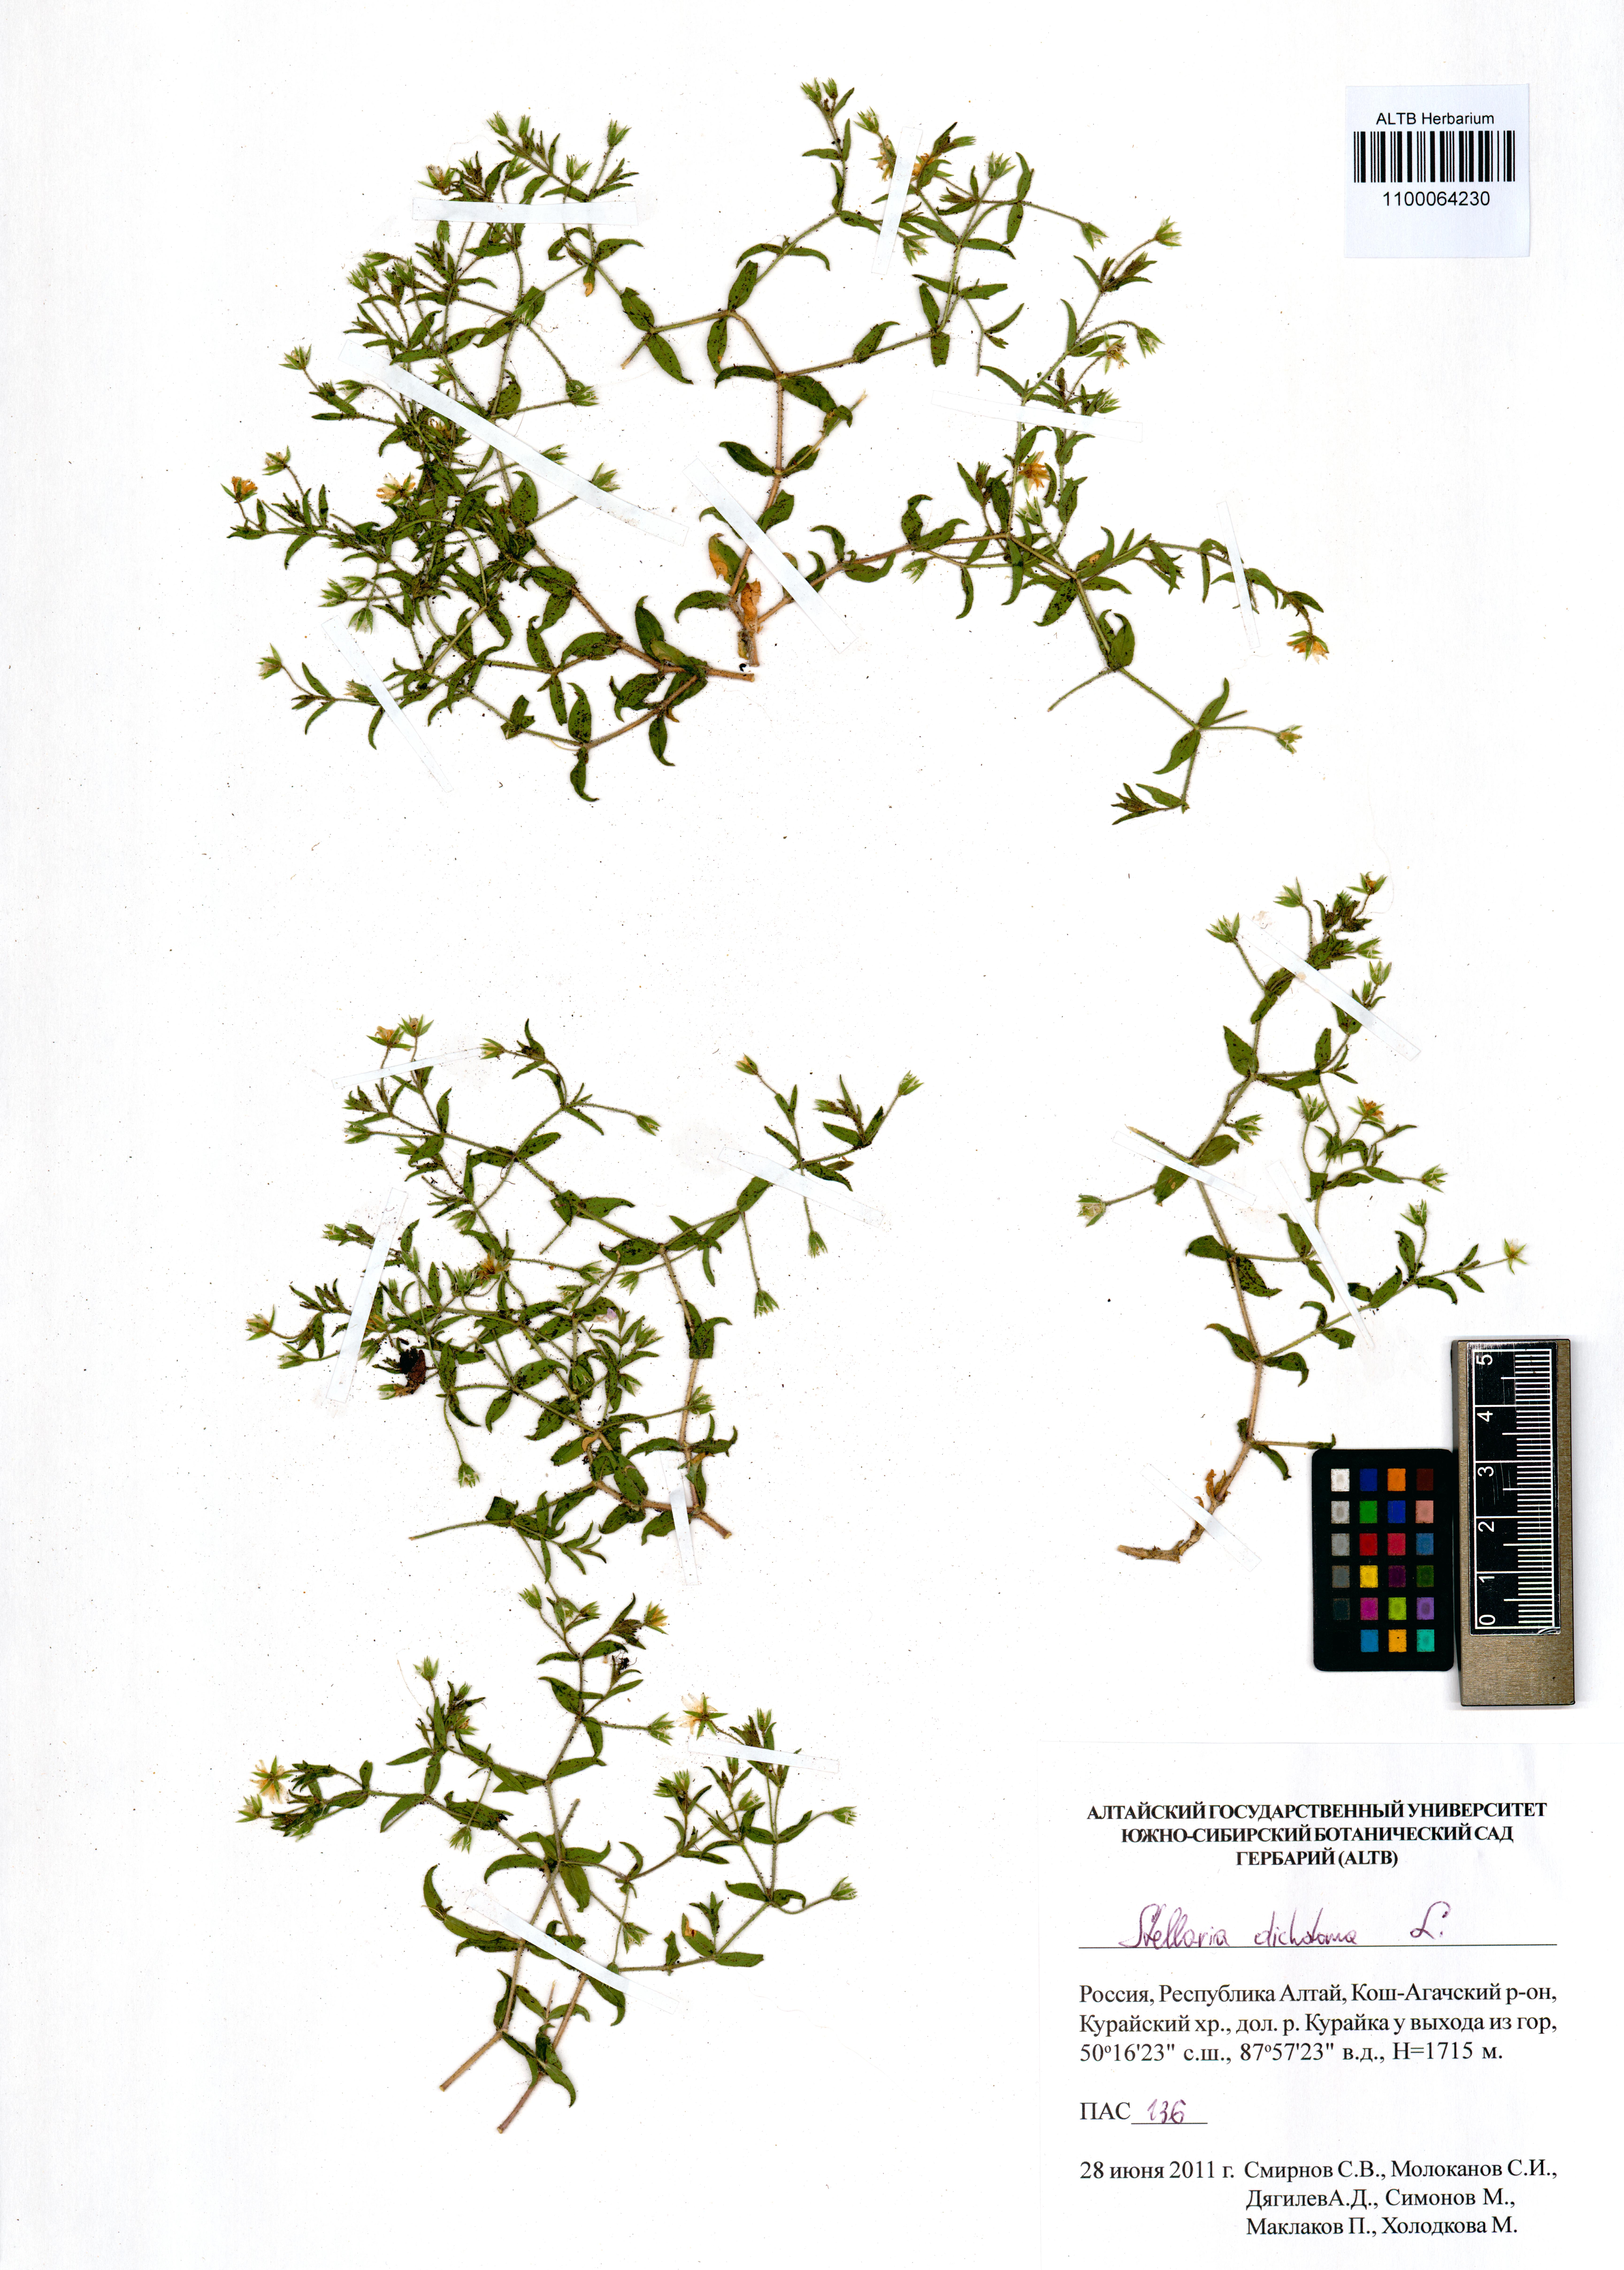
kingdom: Plantae
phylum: Tracheophyta
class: Magnoliopsida
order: Caryophyllales
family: Caryophyllaceae
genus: Mesostemma
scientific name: Mesostemma dichotomum
